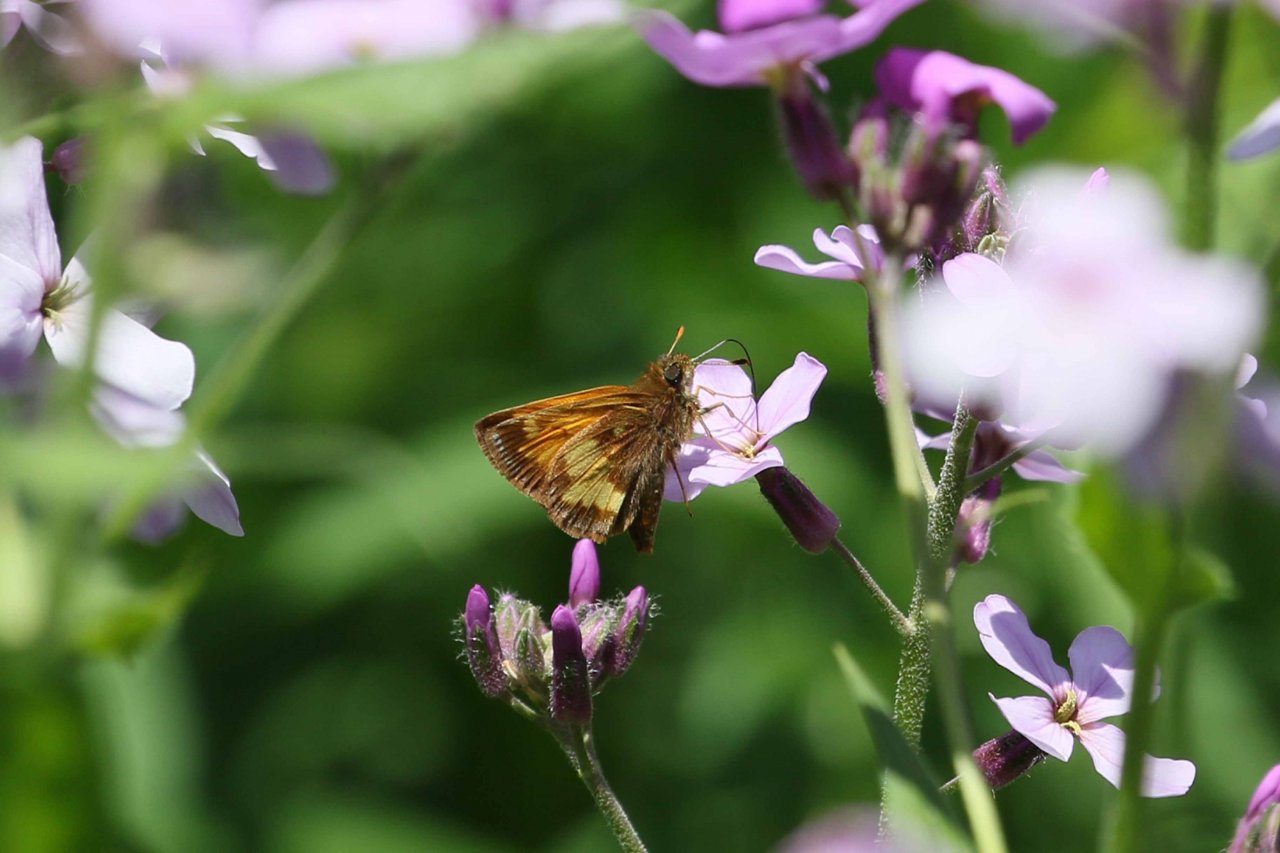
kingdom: Animalia
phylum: Arthropoda
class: Insecta
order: Lepidoptera
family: Hesperiidae
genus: Lon
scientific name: Lon hobomok
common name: Hobomok Skipper
